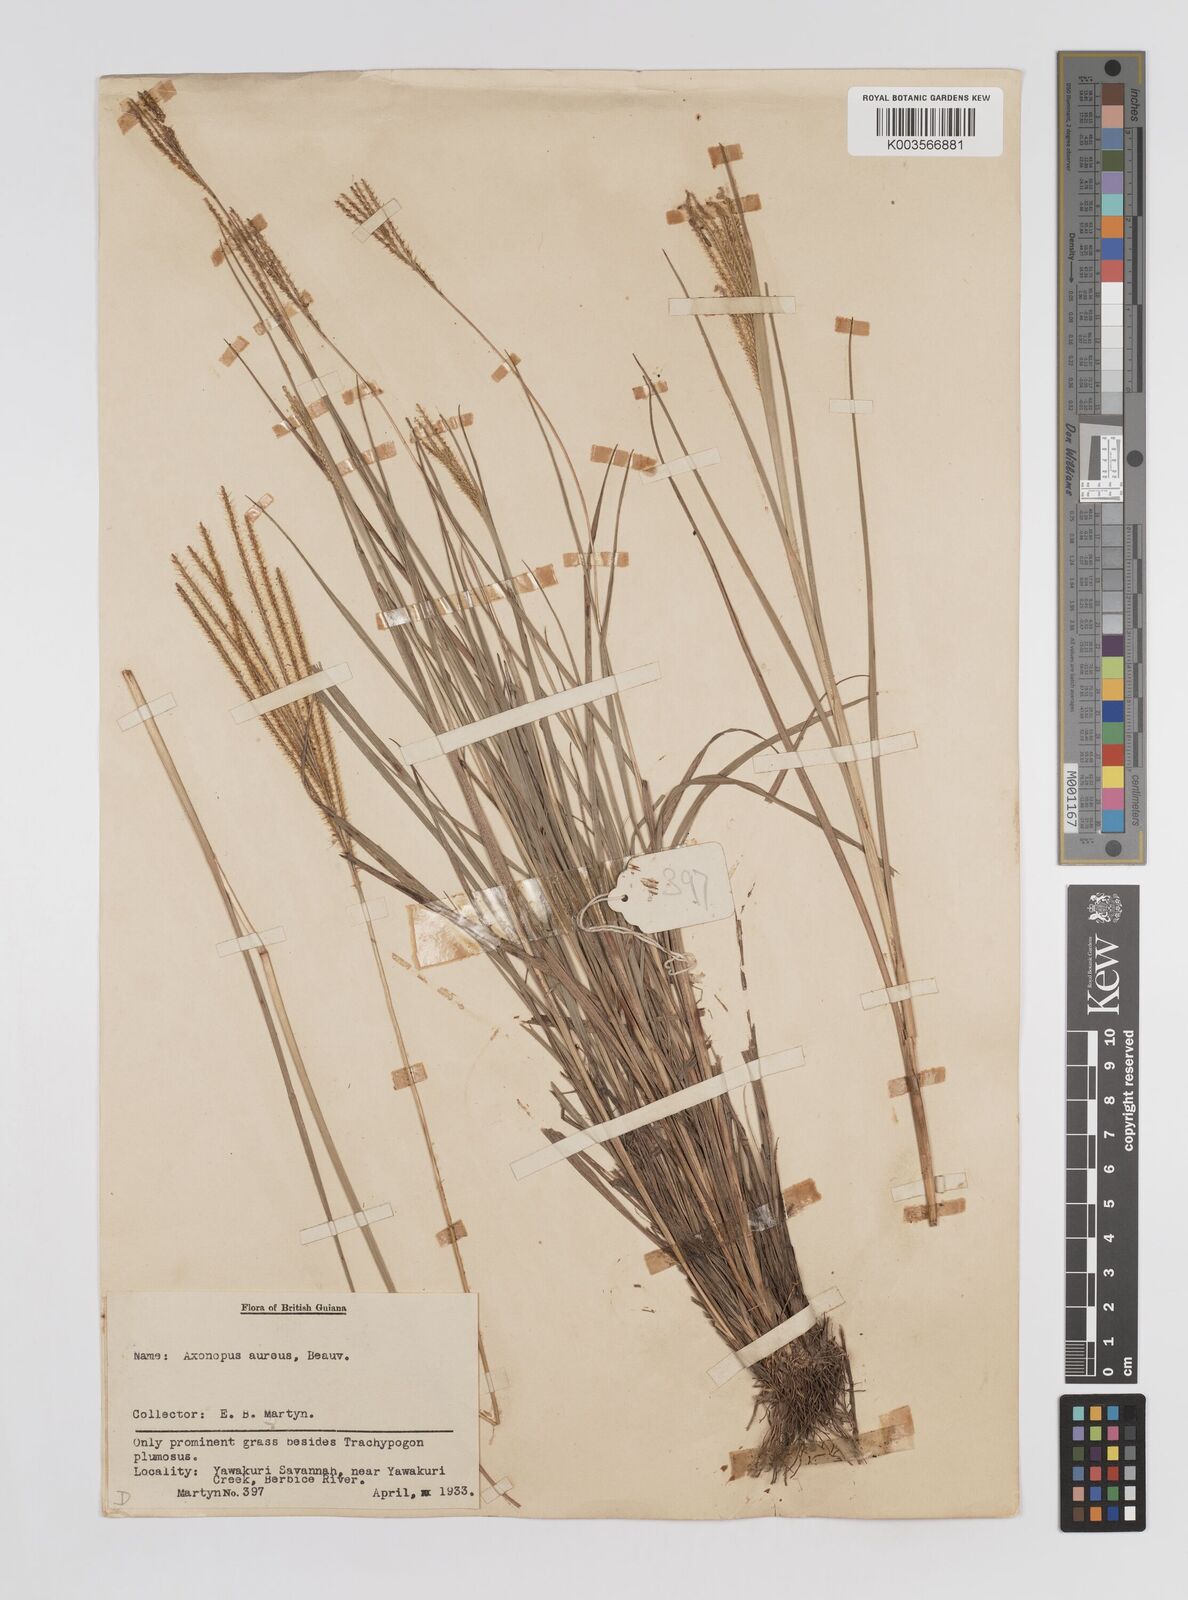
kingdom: Plantae
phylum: Tracheophyta
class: Liliopsida
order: Poales
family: Poaceae
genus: Axonopus
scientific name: Axonopus aureus
